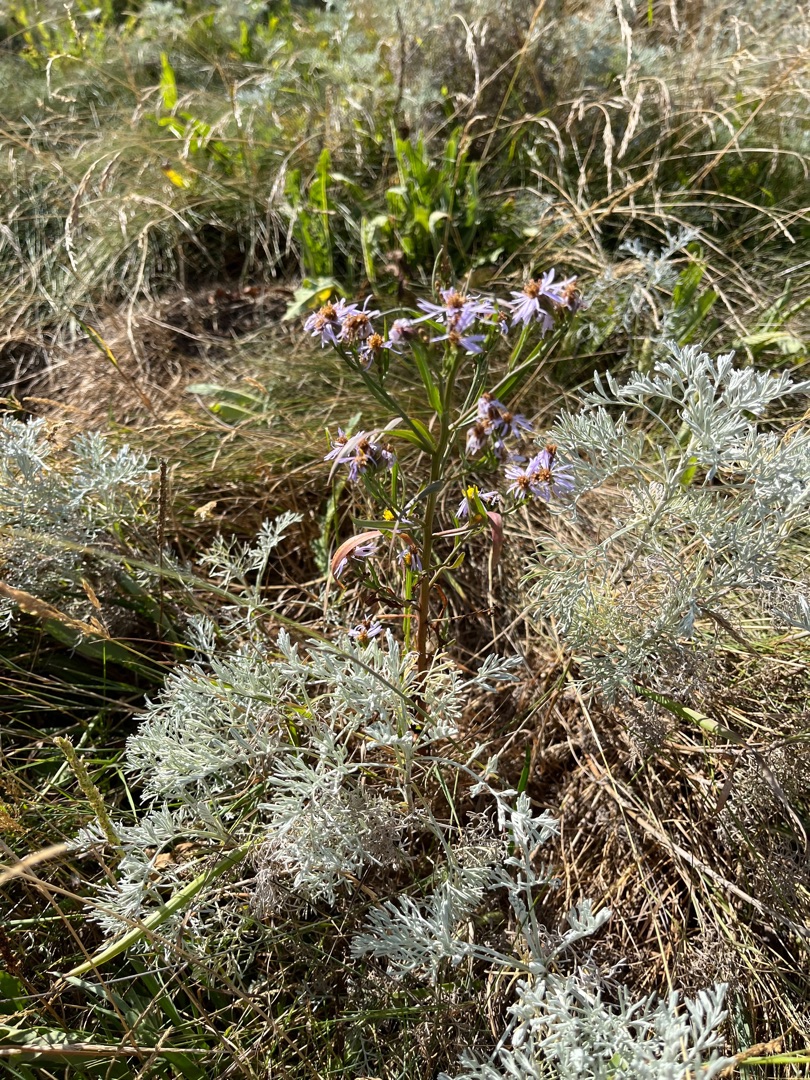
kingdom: Plantae
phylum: Tracheophyta
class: Magnoliopsida
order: Asterales
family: Asteraceae
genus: Tripolium
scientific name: Tripolium pannonicum
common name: Strandasters
